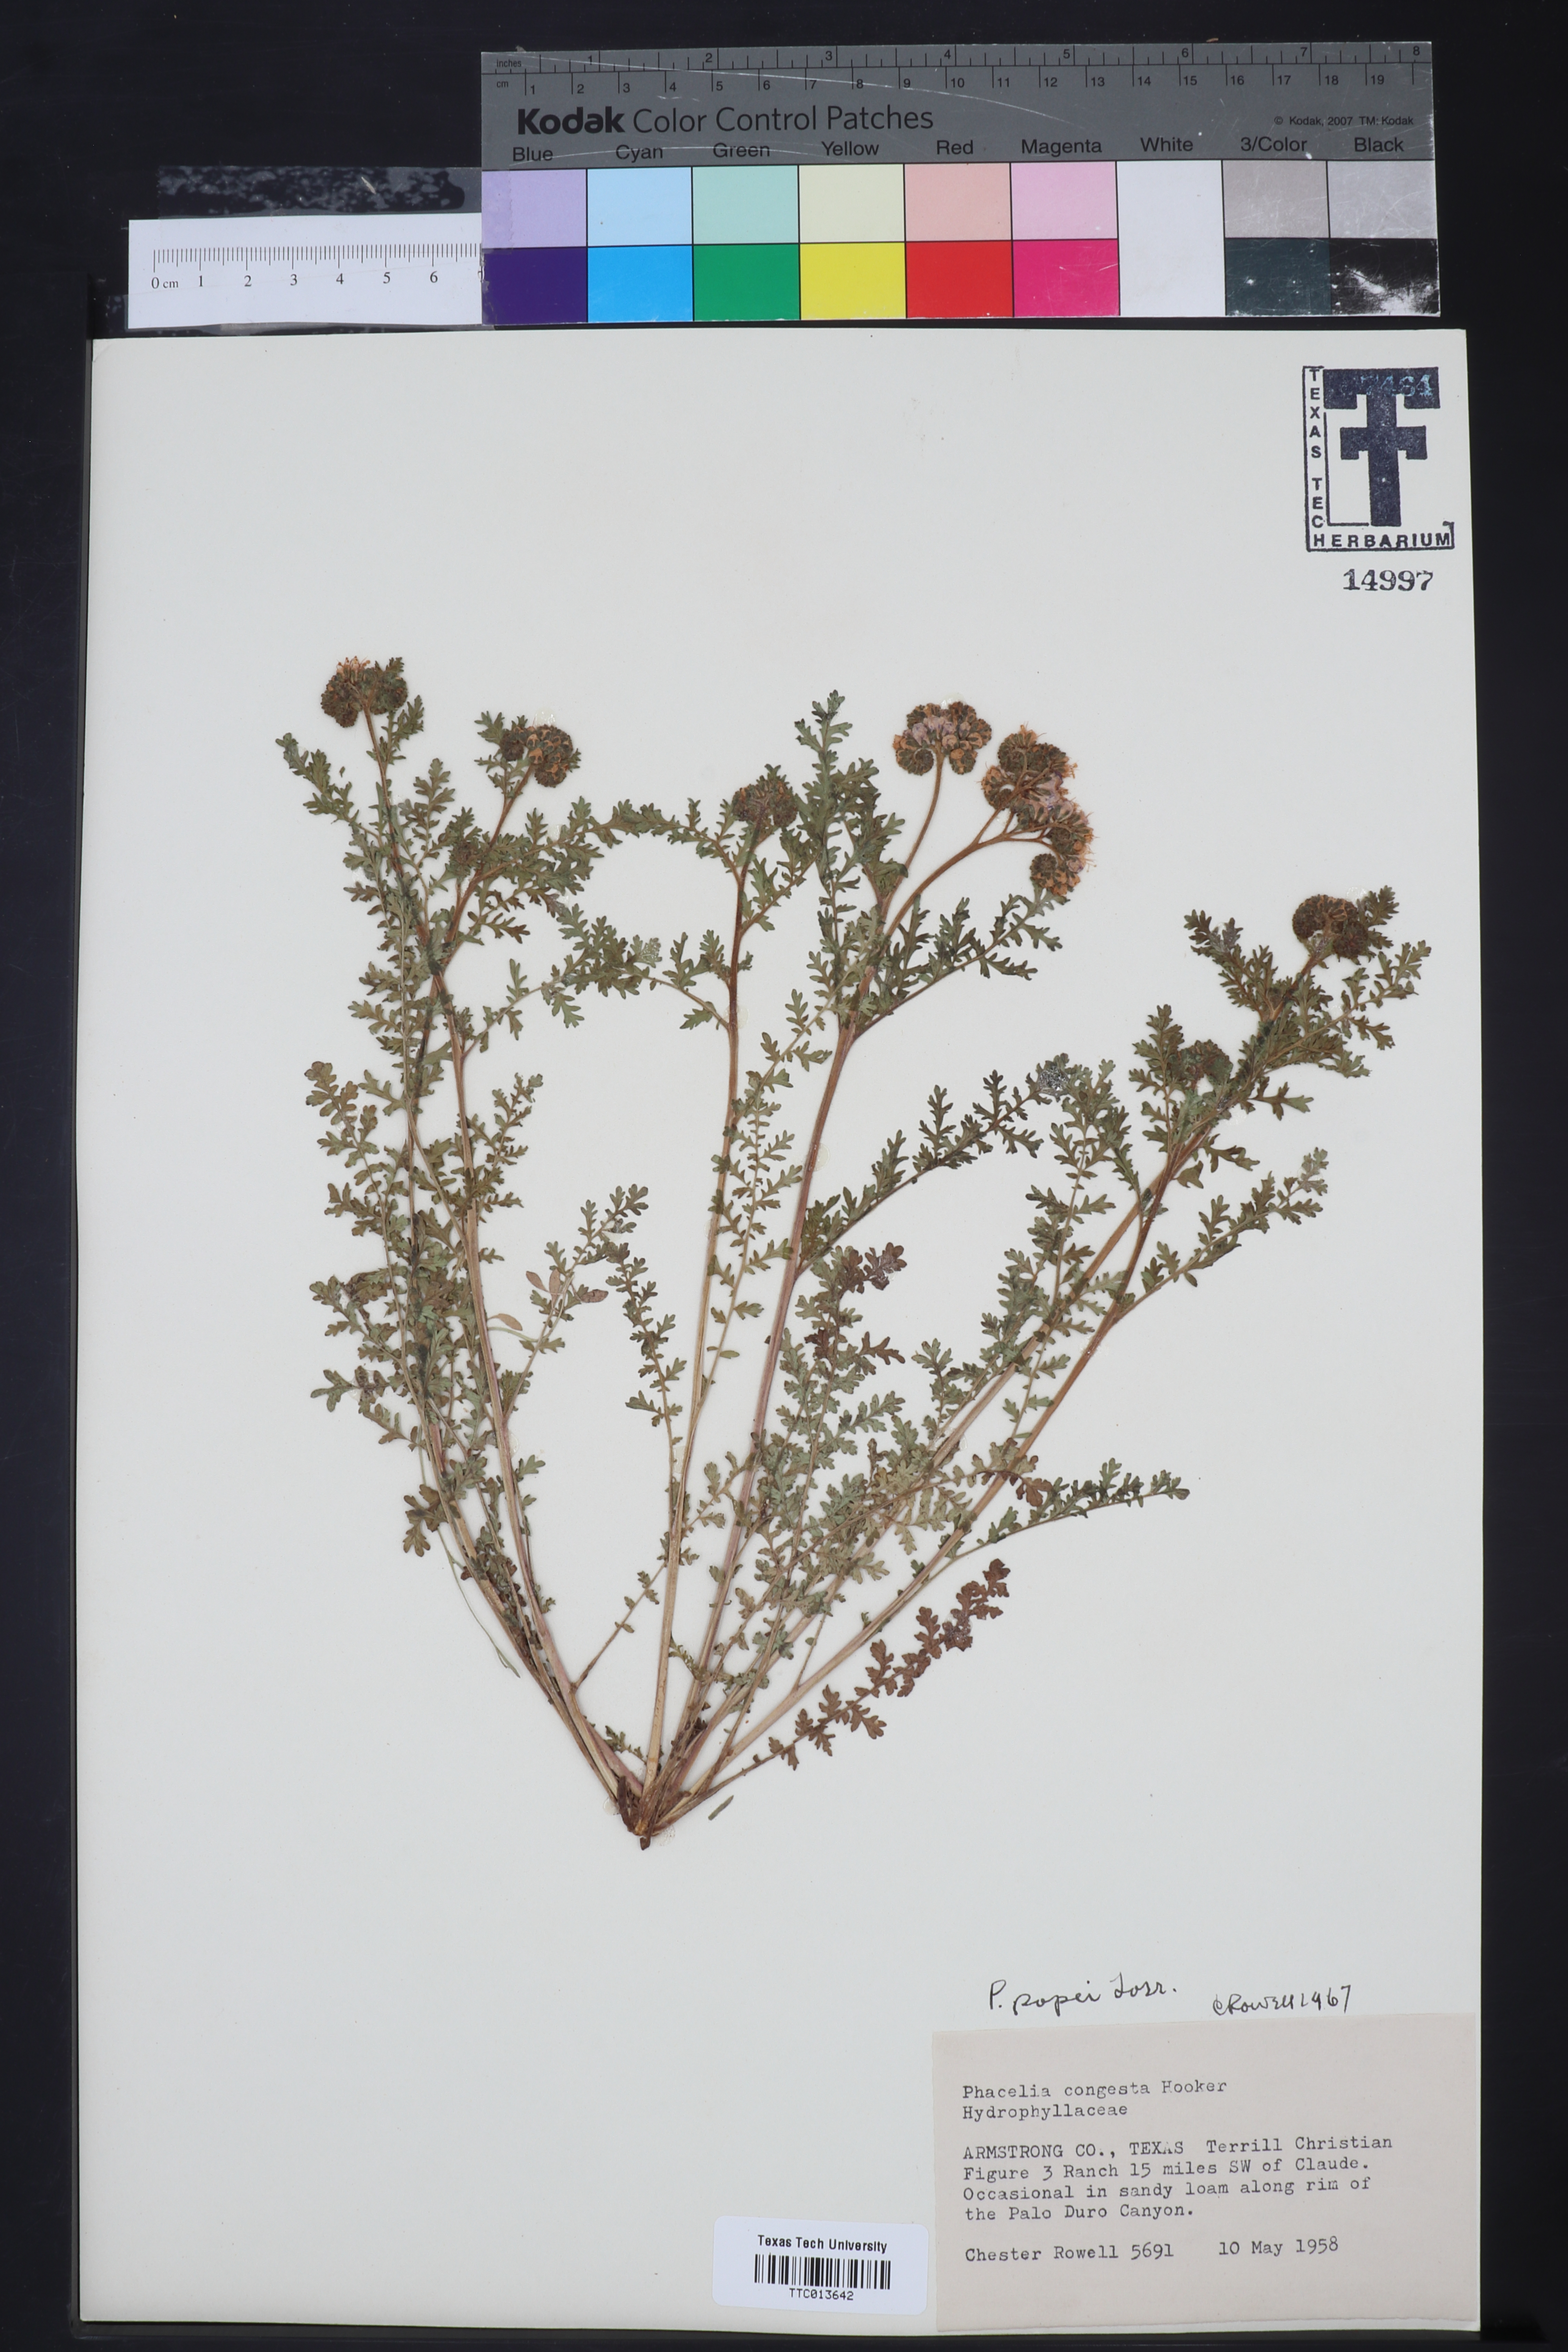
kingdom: Plantae
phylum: Tracheophyta
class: Magnoliopsida
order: Boraginales
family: Hydrophyllaceae
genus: Phacelia
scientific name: Phacelia popei
